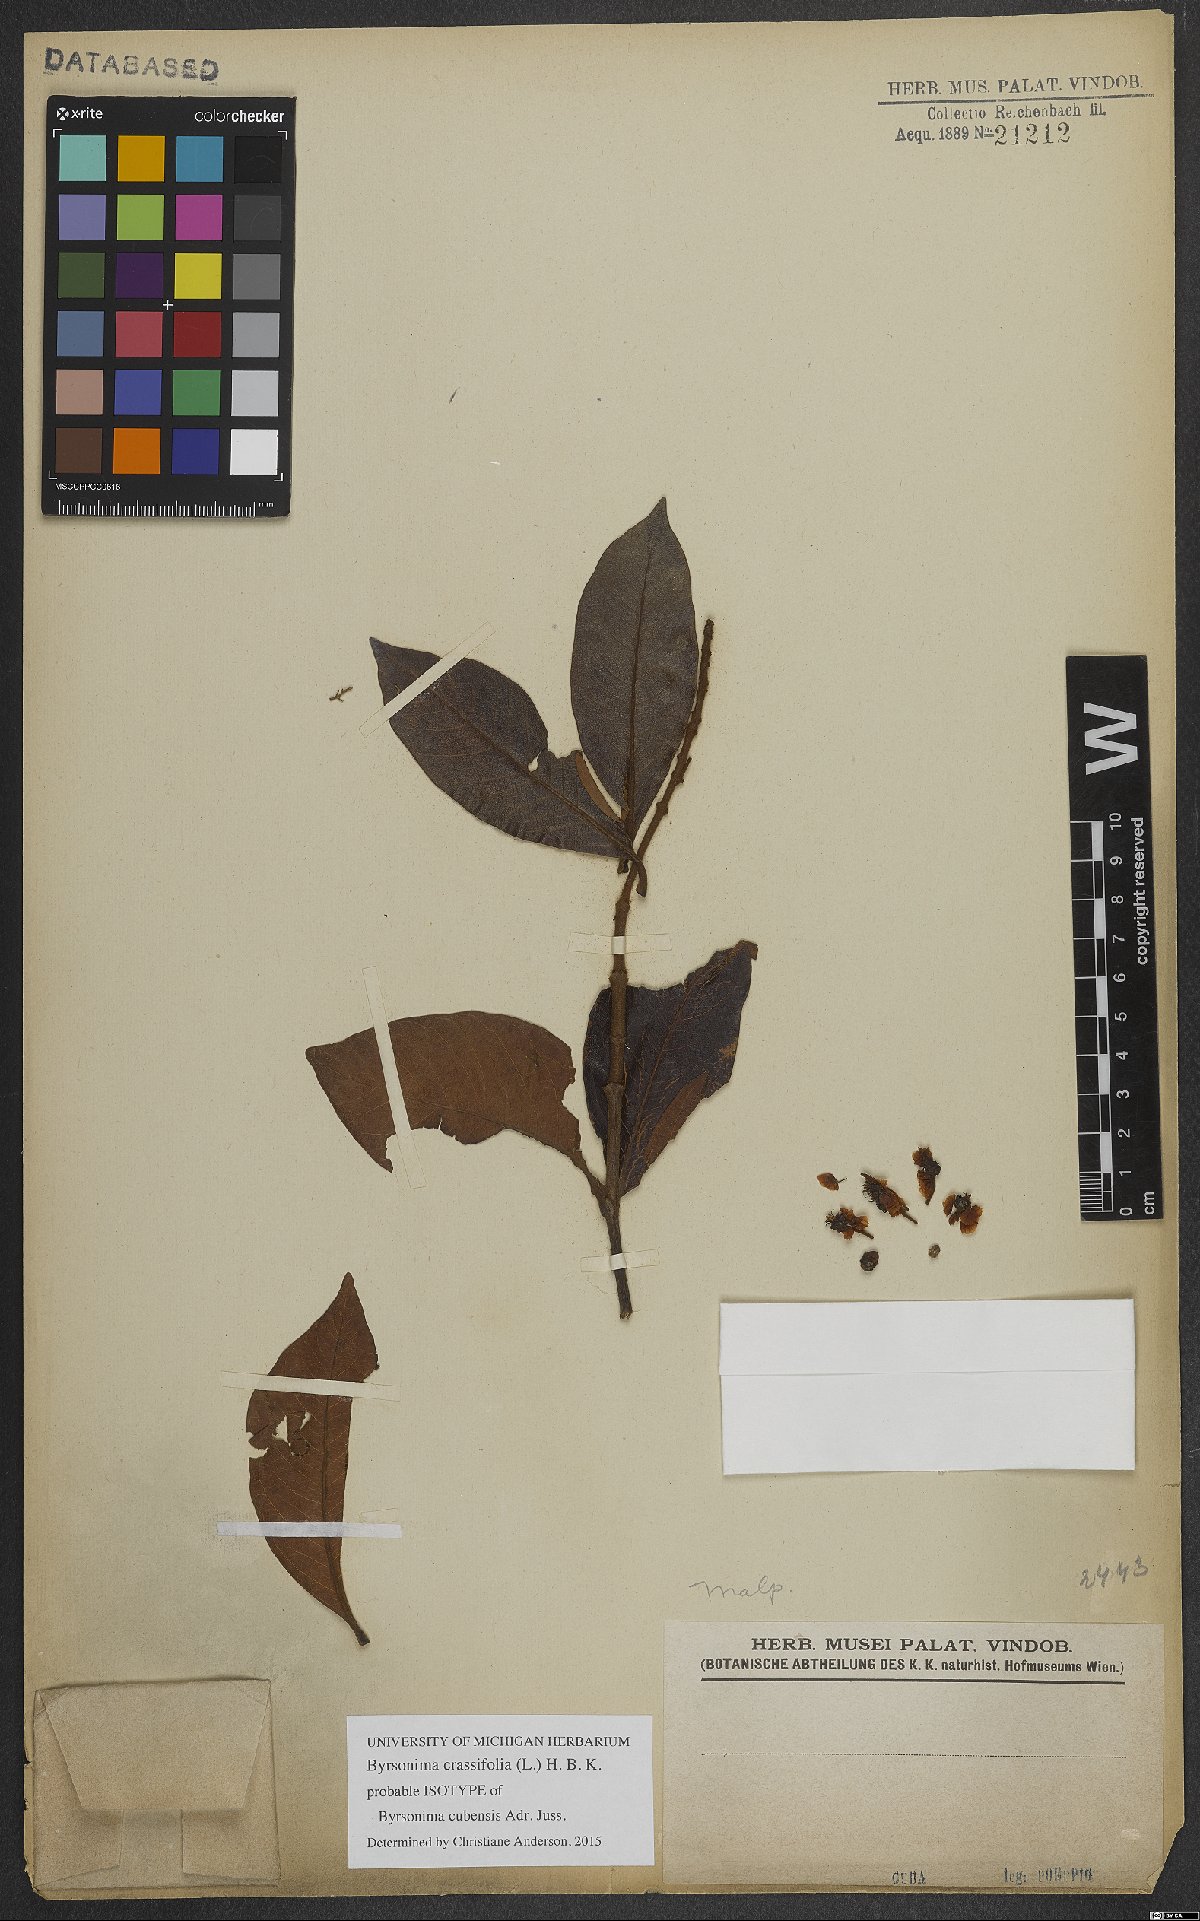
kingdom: Plantae
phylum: Tracheophyta
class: Magnoliopsida
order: Malpighiales
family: Malpighiaceae
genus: Byrsonima
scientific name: Byrsonima crassifolia
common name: Golden spoon
